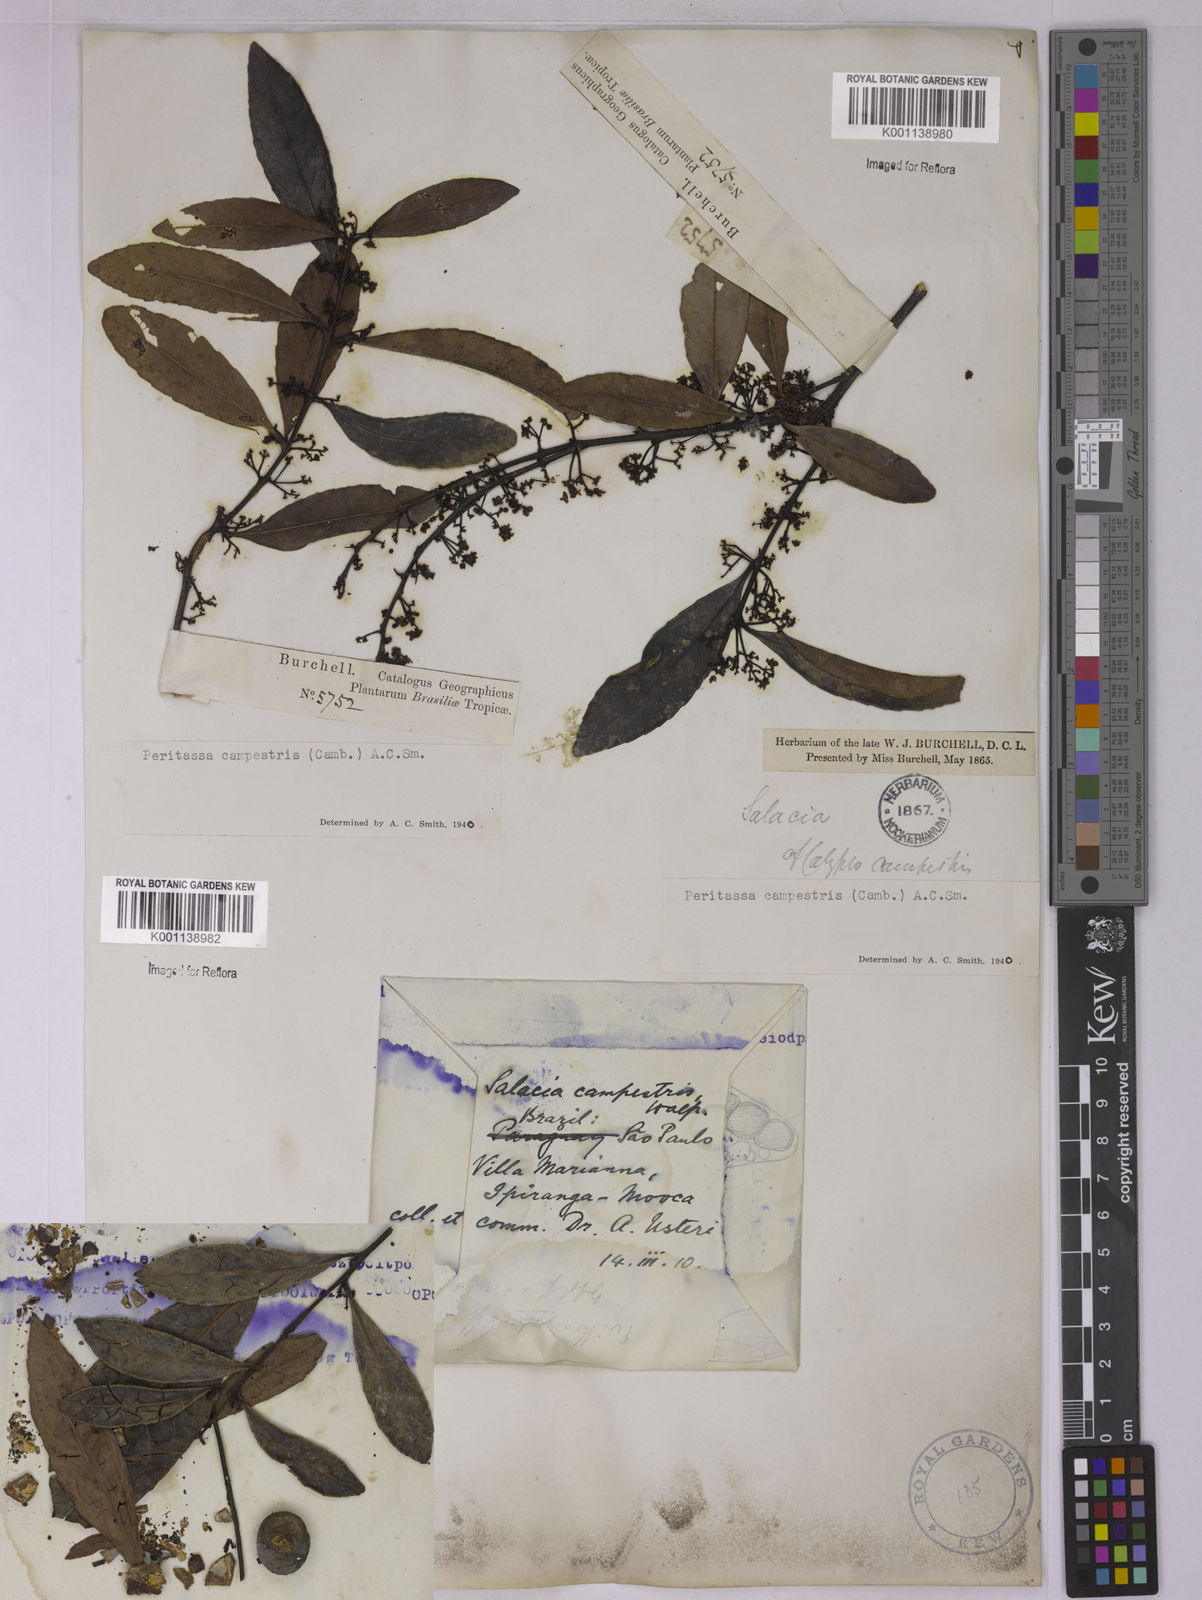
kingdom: Plantae
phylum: Tracheophyta
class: Magnoliopsida
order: Celastrales
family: Celastraceae
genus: Peritassa
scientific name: Peritassa campestris
